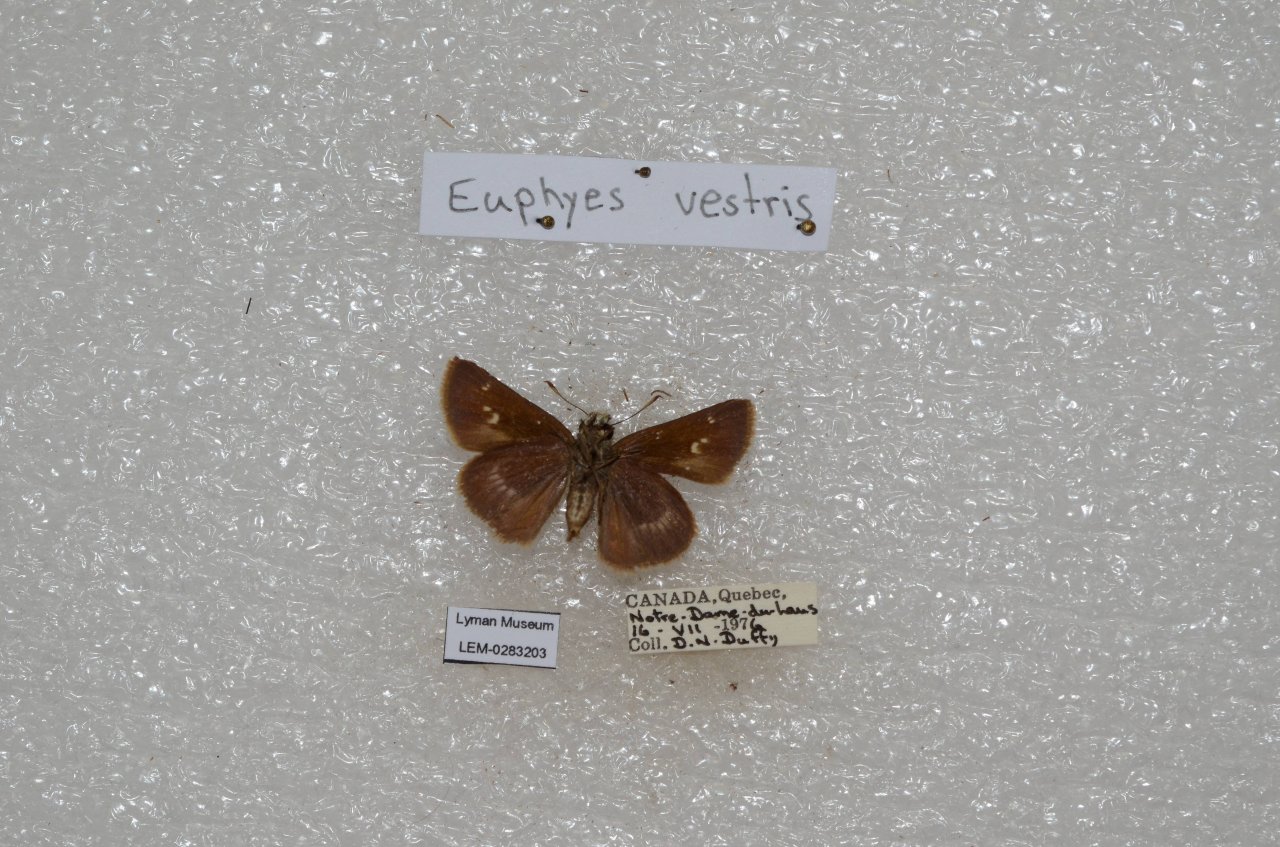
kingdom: Animalia
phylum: Arthropoda
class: Insecta
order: Lepidoptera
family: Hesperiidae
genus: Polites
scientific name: Polites egeremet
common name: Northern Broken-Dash
